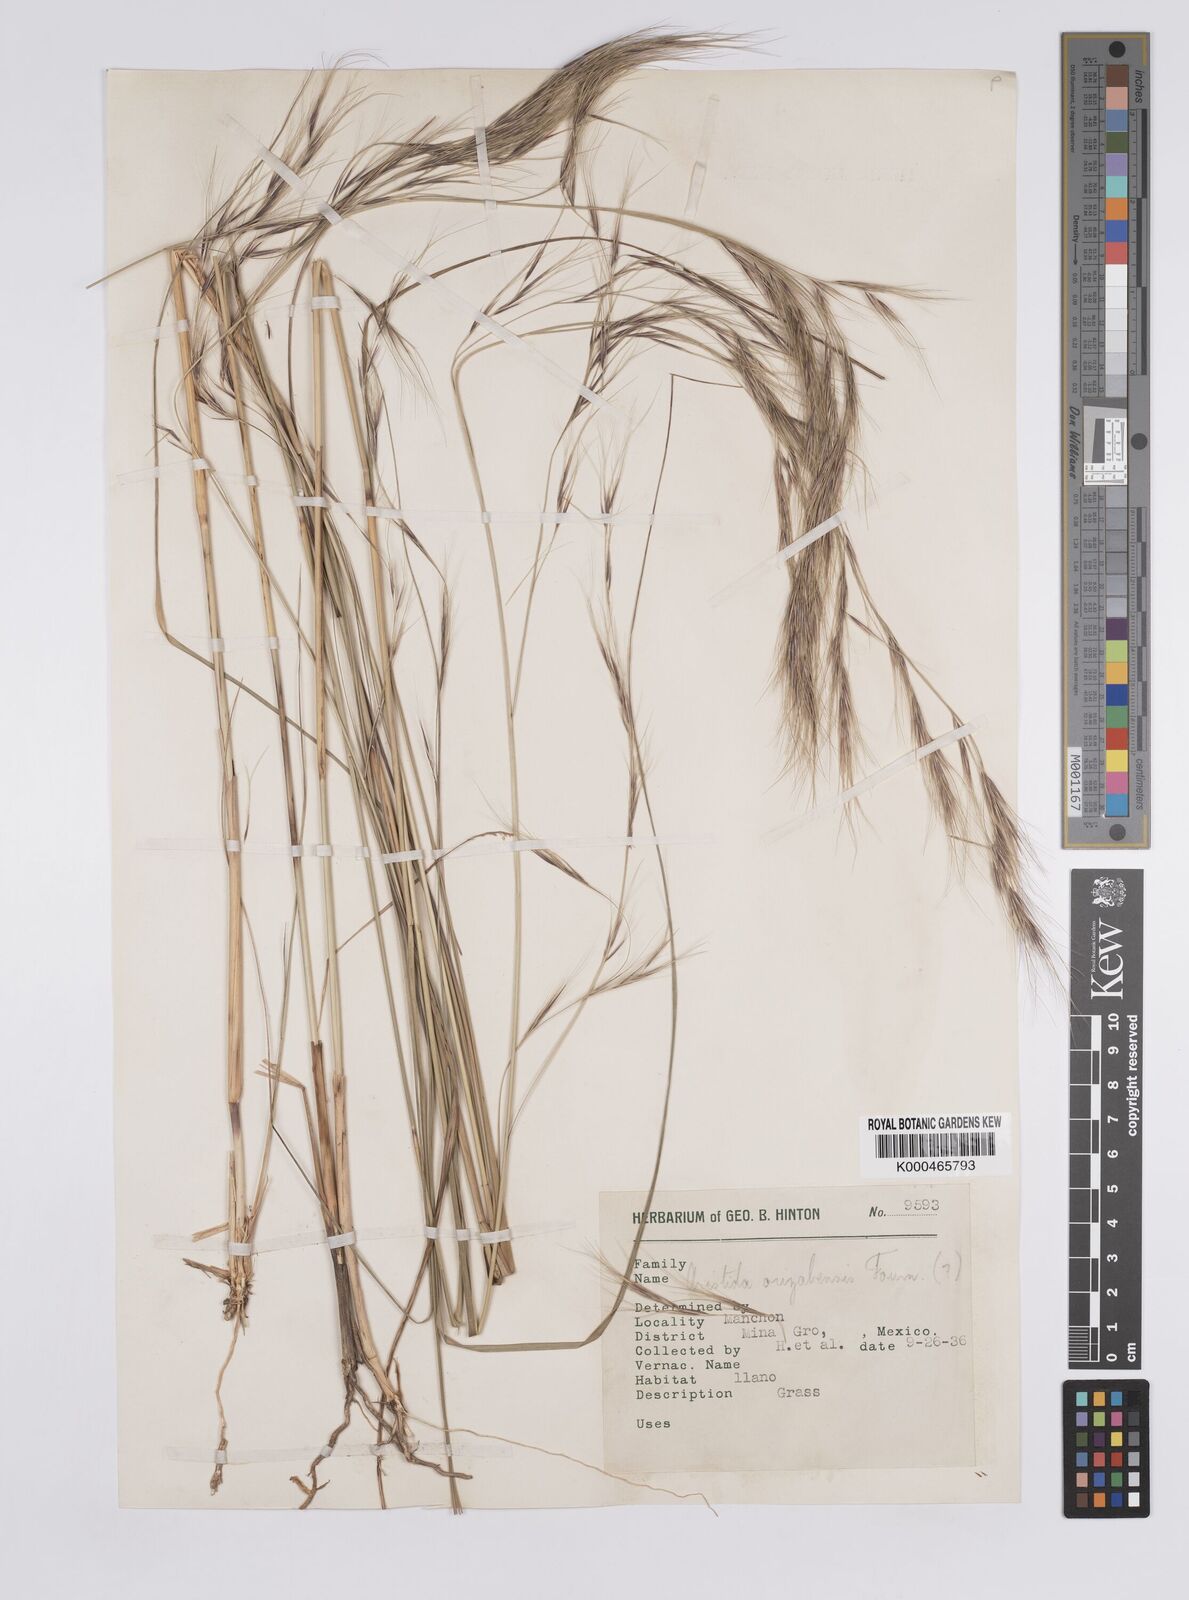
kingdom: Plantae
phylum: Tracheophyta
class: Liliopsida
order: Poales
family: Poaceae
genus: Aristida
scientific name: Aristida arizonica
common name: Arizona threeawn
